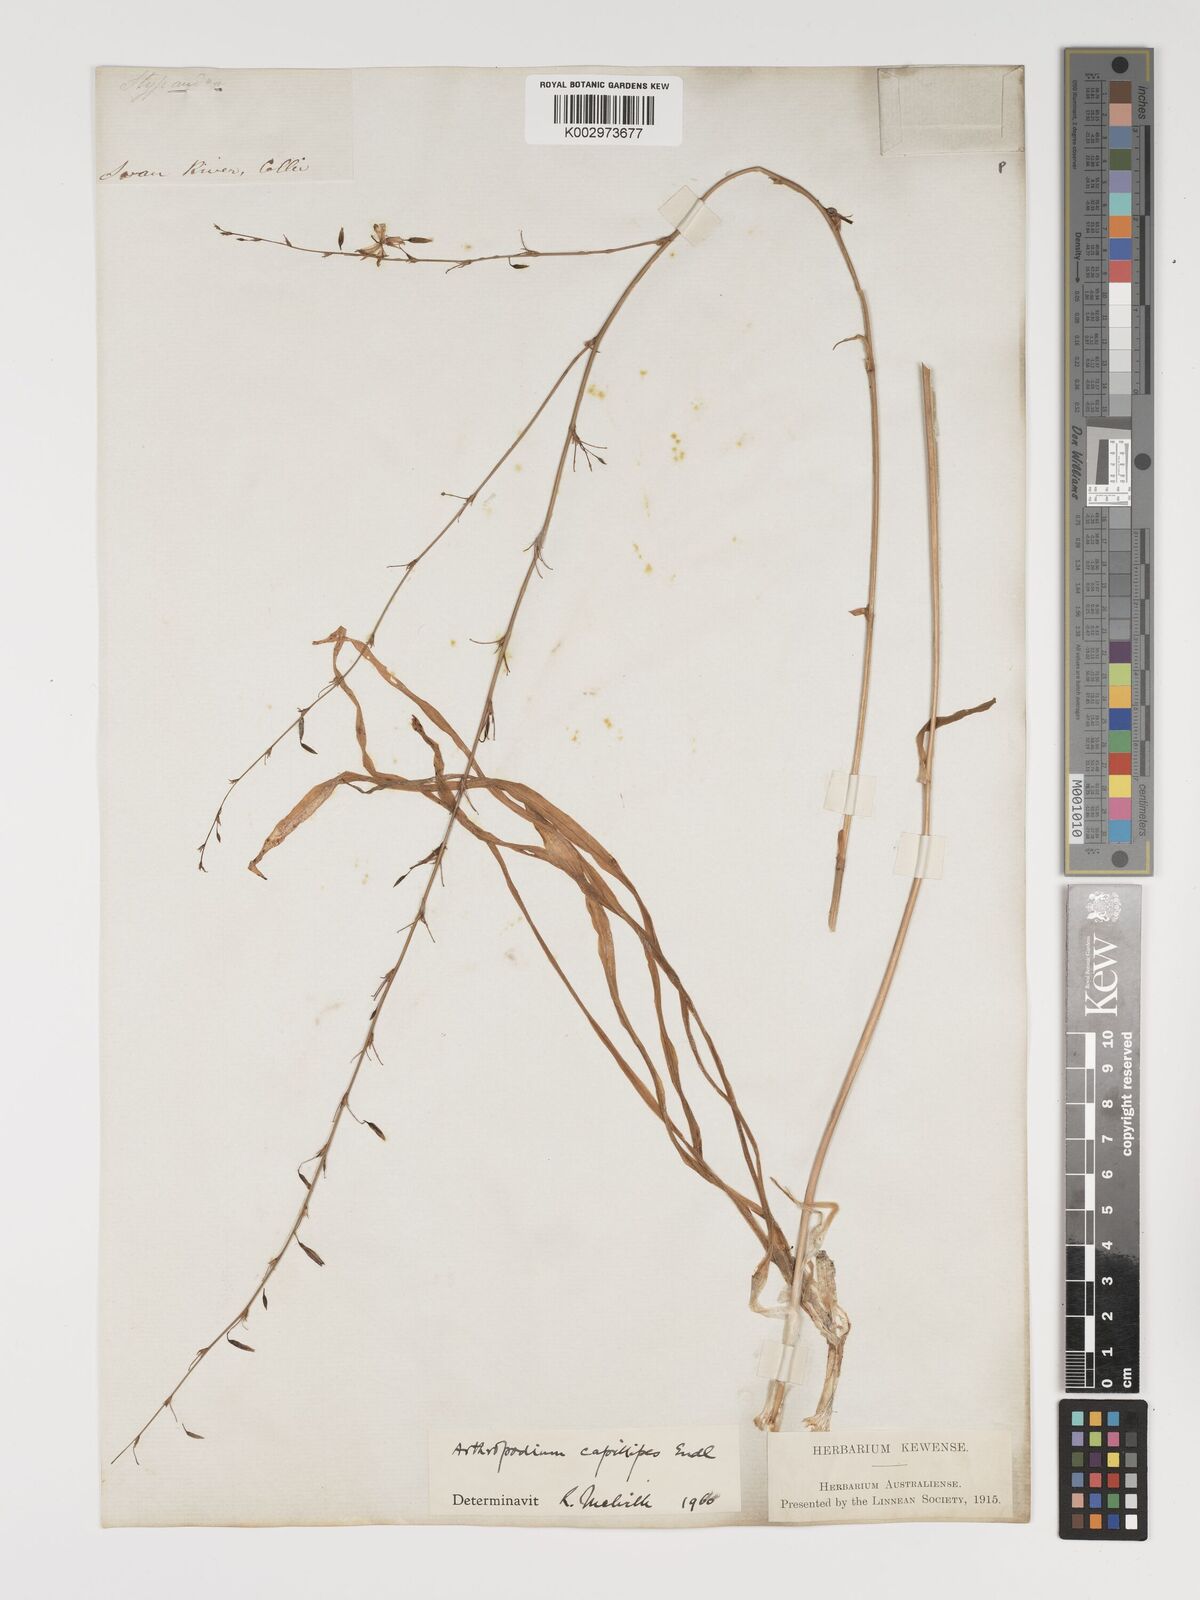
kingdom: Plantae
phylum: Tracheophyta
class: Liliopsida
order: Asparagales
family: Asparagaceae
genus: Dichopogon
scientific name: Dichopogon capillipes
